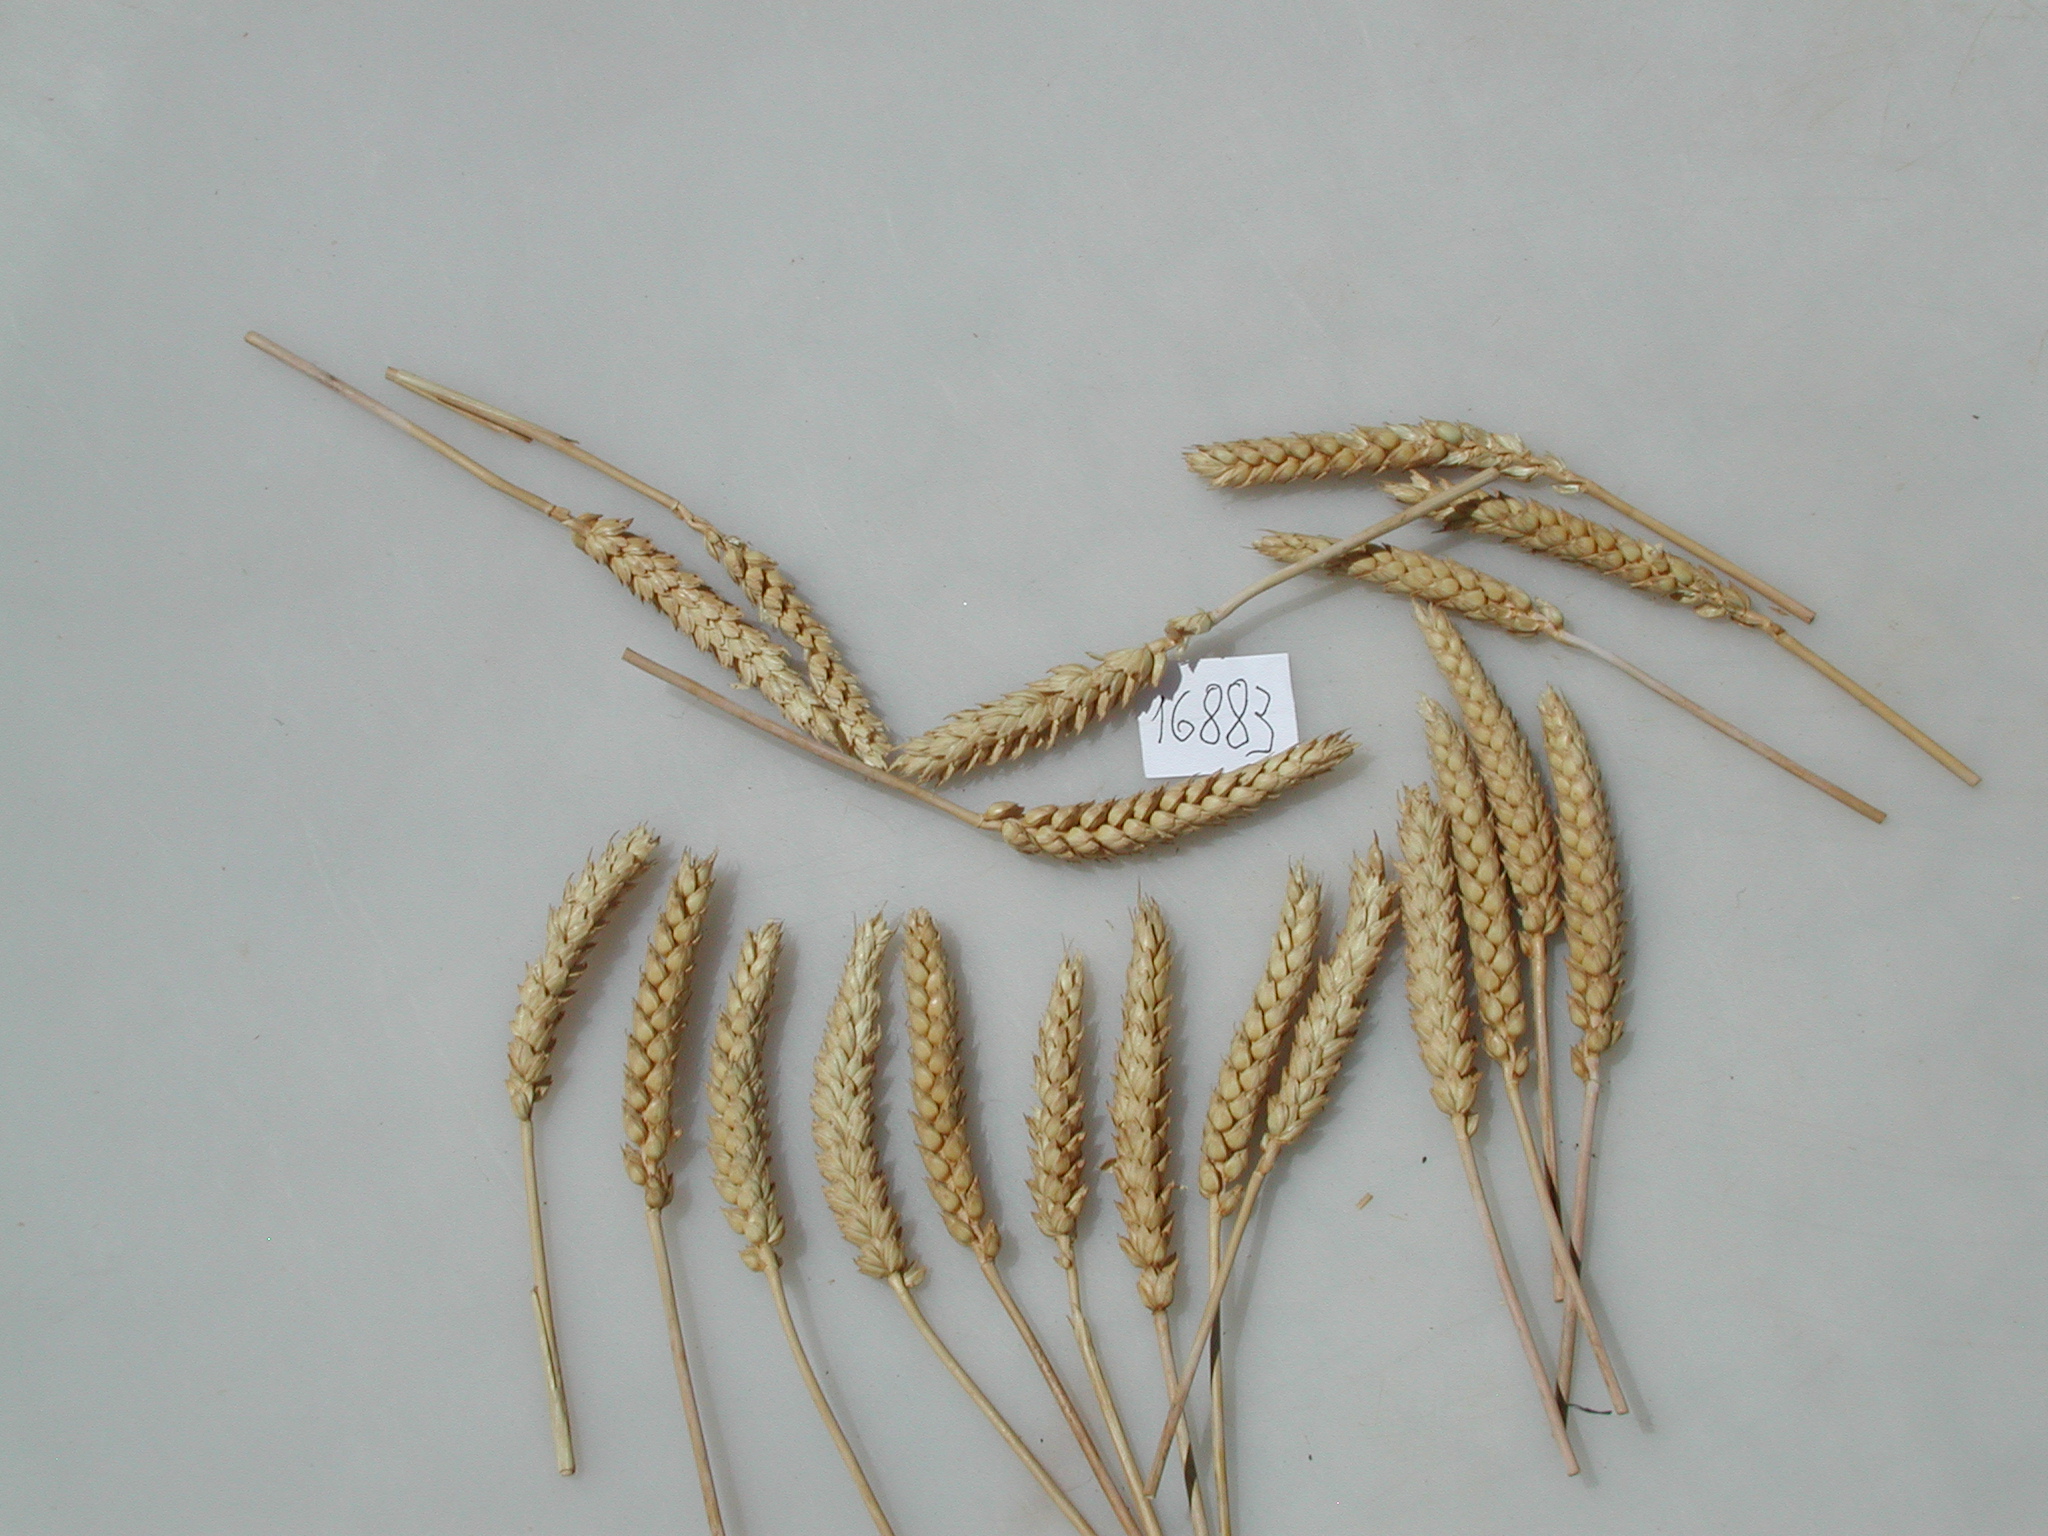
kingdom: Plantae
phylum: Tracheophyta
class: Liliopsida
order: Poales
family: Poaceae
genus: Triticum
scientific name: Triticum
